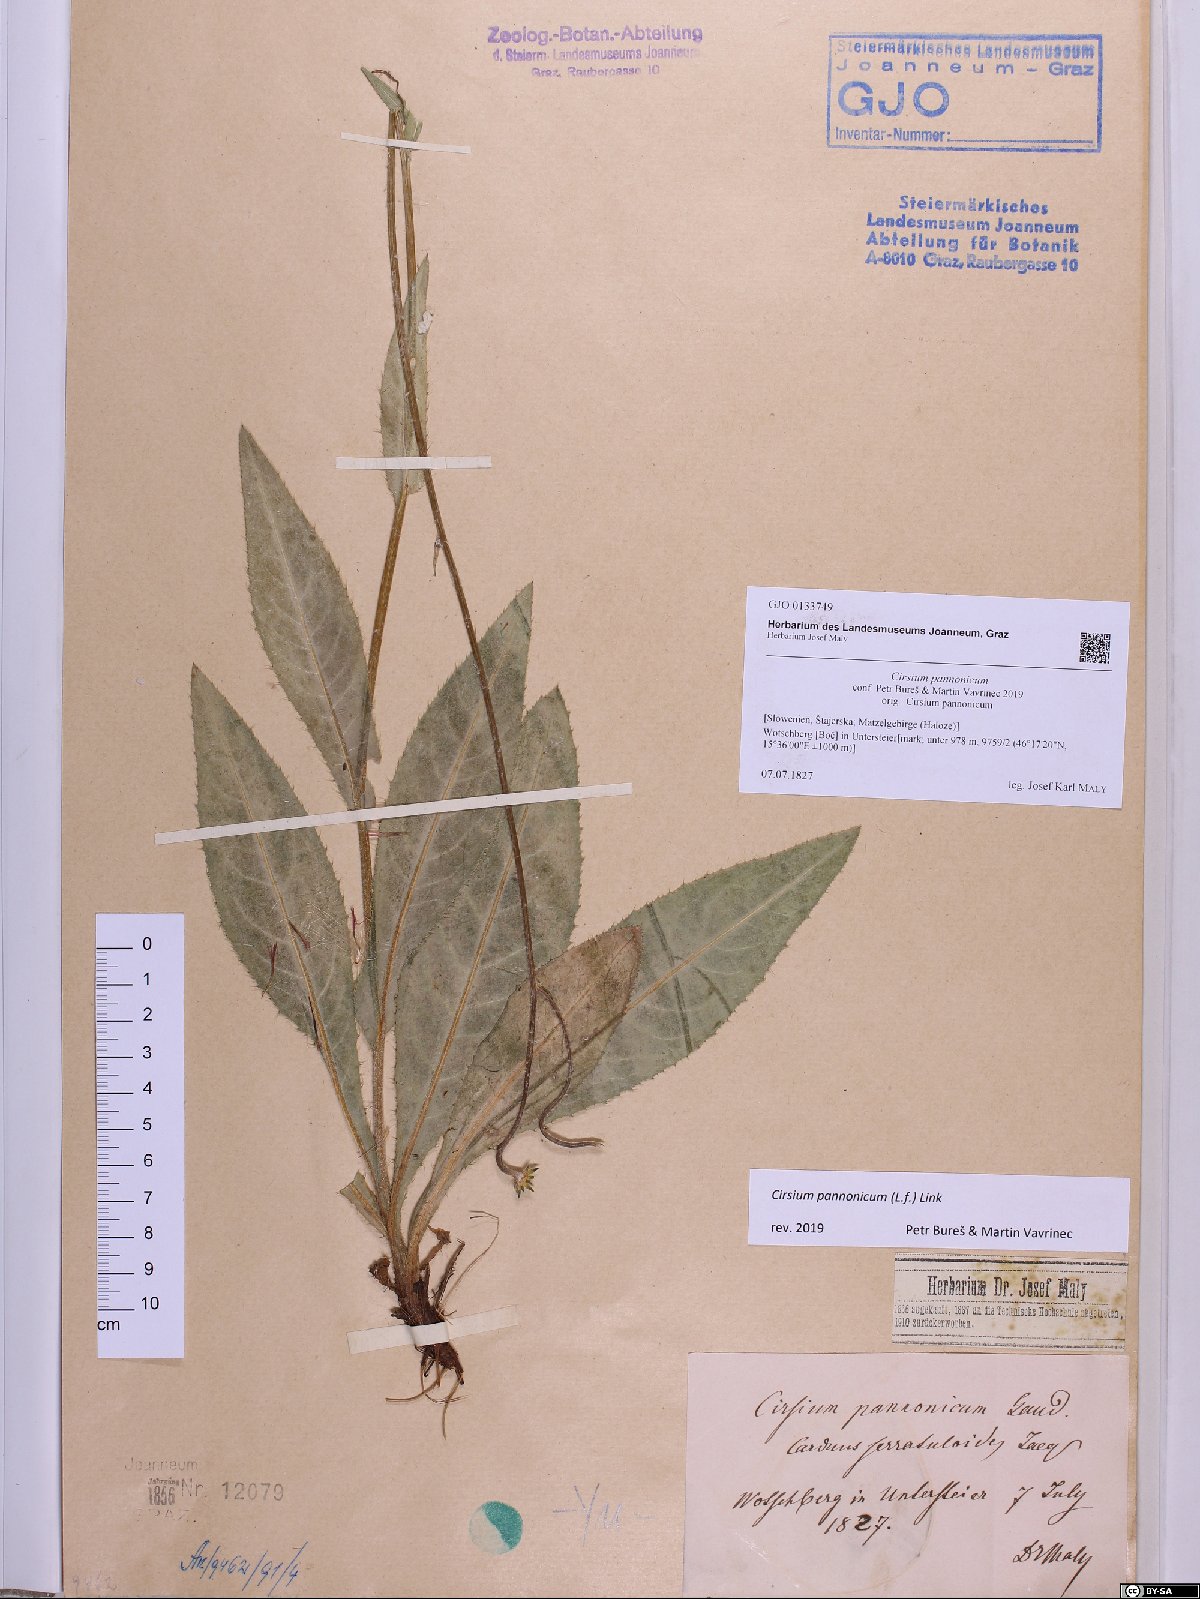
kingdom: Plantae
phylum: Tracheophyta
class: Magnoliopsida
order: Asterales
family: Asteraceae
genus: Cirsium
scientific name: Cirsium pannonicum
